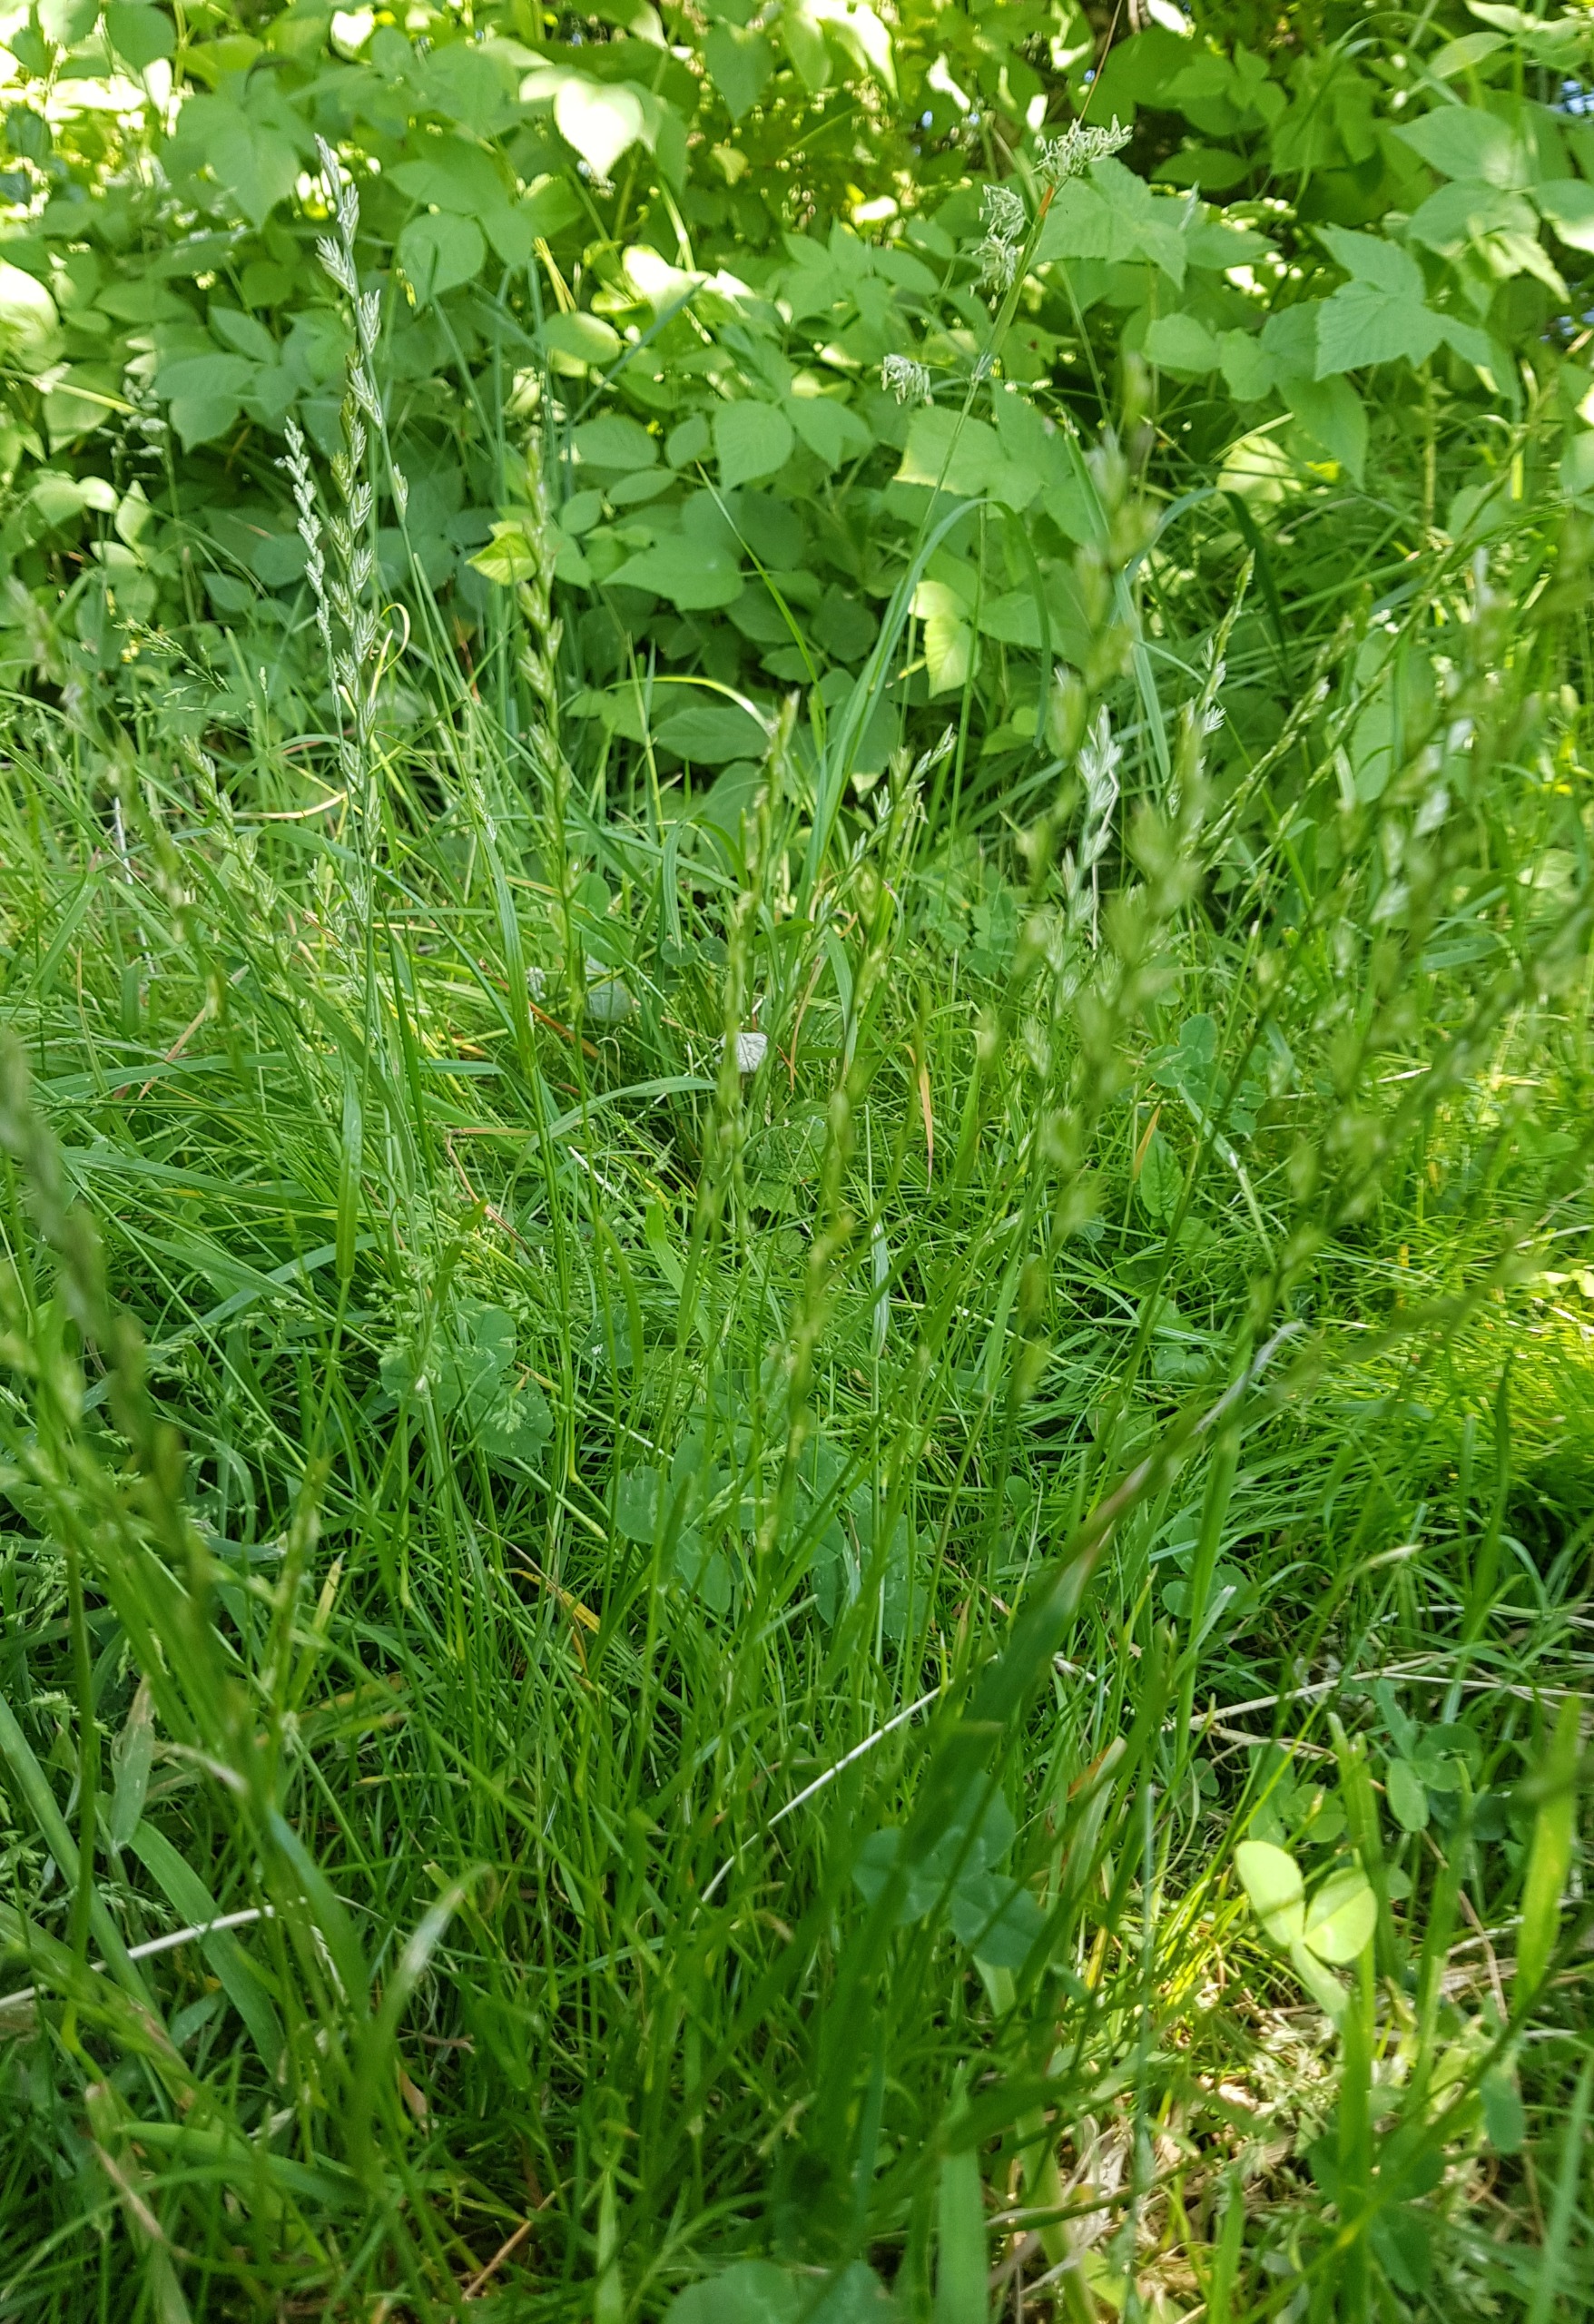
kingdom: Plantae
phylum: Tracheophyta
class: Liliopsida
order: Poales
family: Poaceae
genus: Lolium
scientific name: Lolium perenne
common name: Almindelig rajgræs
